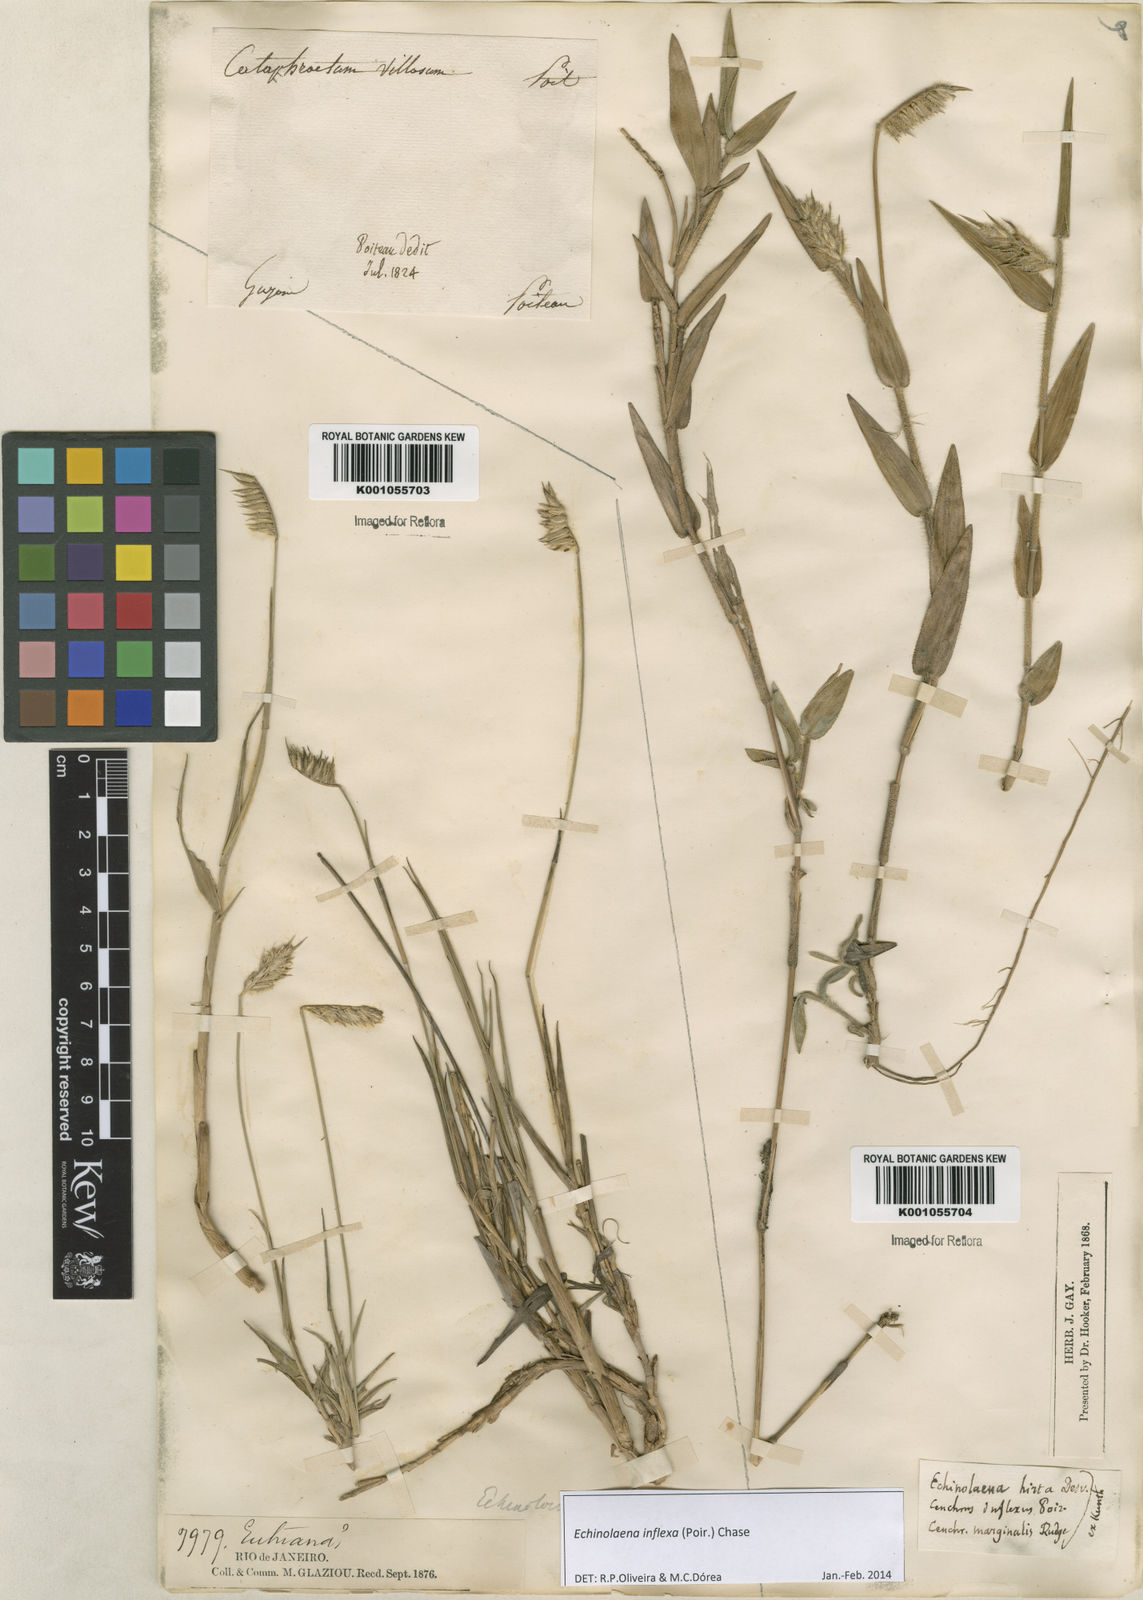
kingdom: Plantae
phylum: Tracheophyta
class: Liliopsida
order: Poales
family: Poaceae
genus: Echinolaena
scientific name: Echinolaena inflexa
